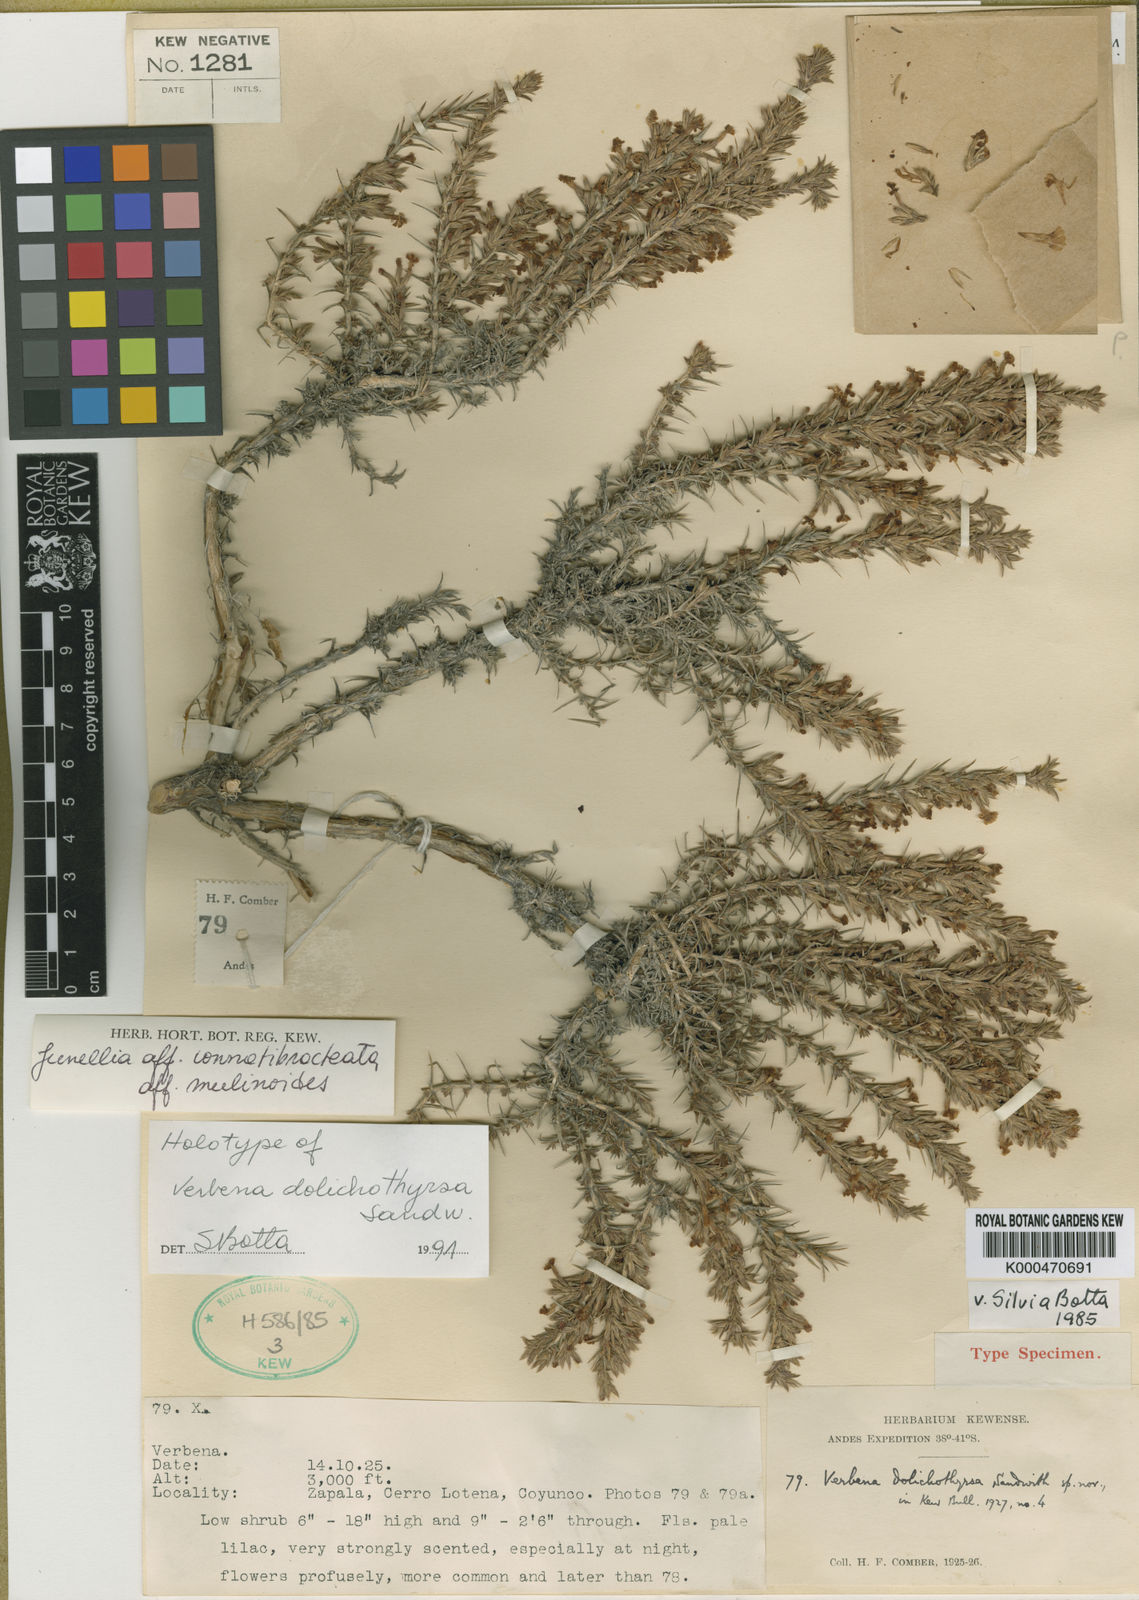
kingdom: Plantae
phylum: Tracheophyta
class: Magnoliopsida
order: Lamiales
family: Verbenaceae
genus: Junellia
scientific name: Junellia connatibracteata
